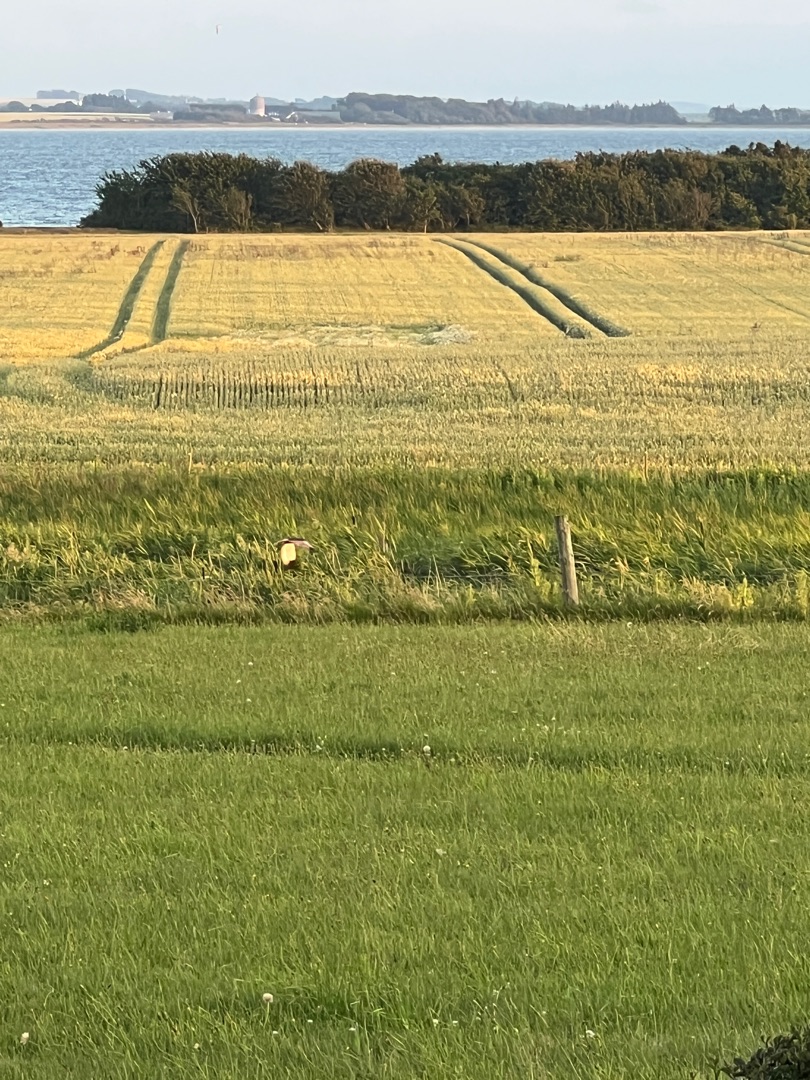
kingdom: Animalia
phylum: Chordata
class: Aves
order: Accipitriformes
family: Accipitridae
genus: Circus
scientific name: Circus aeruginosus
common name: Rørhøg
